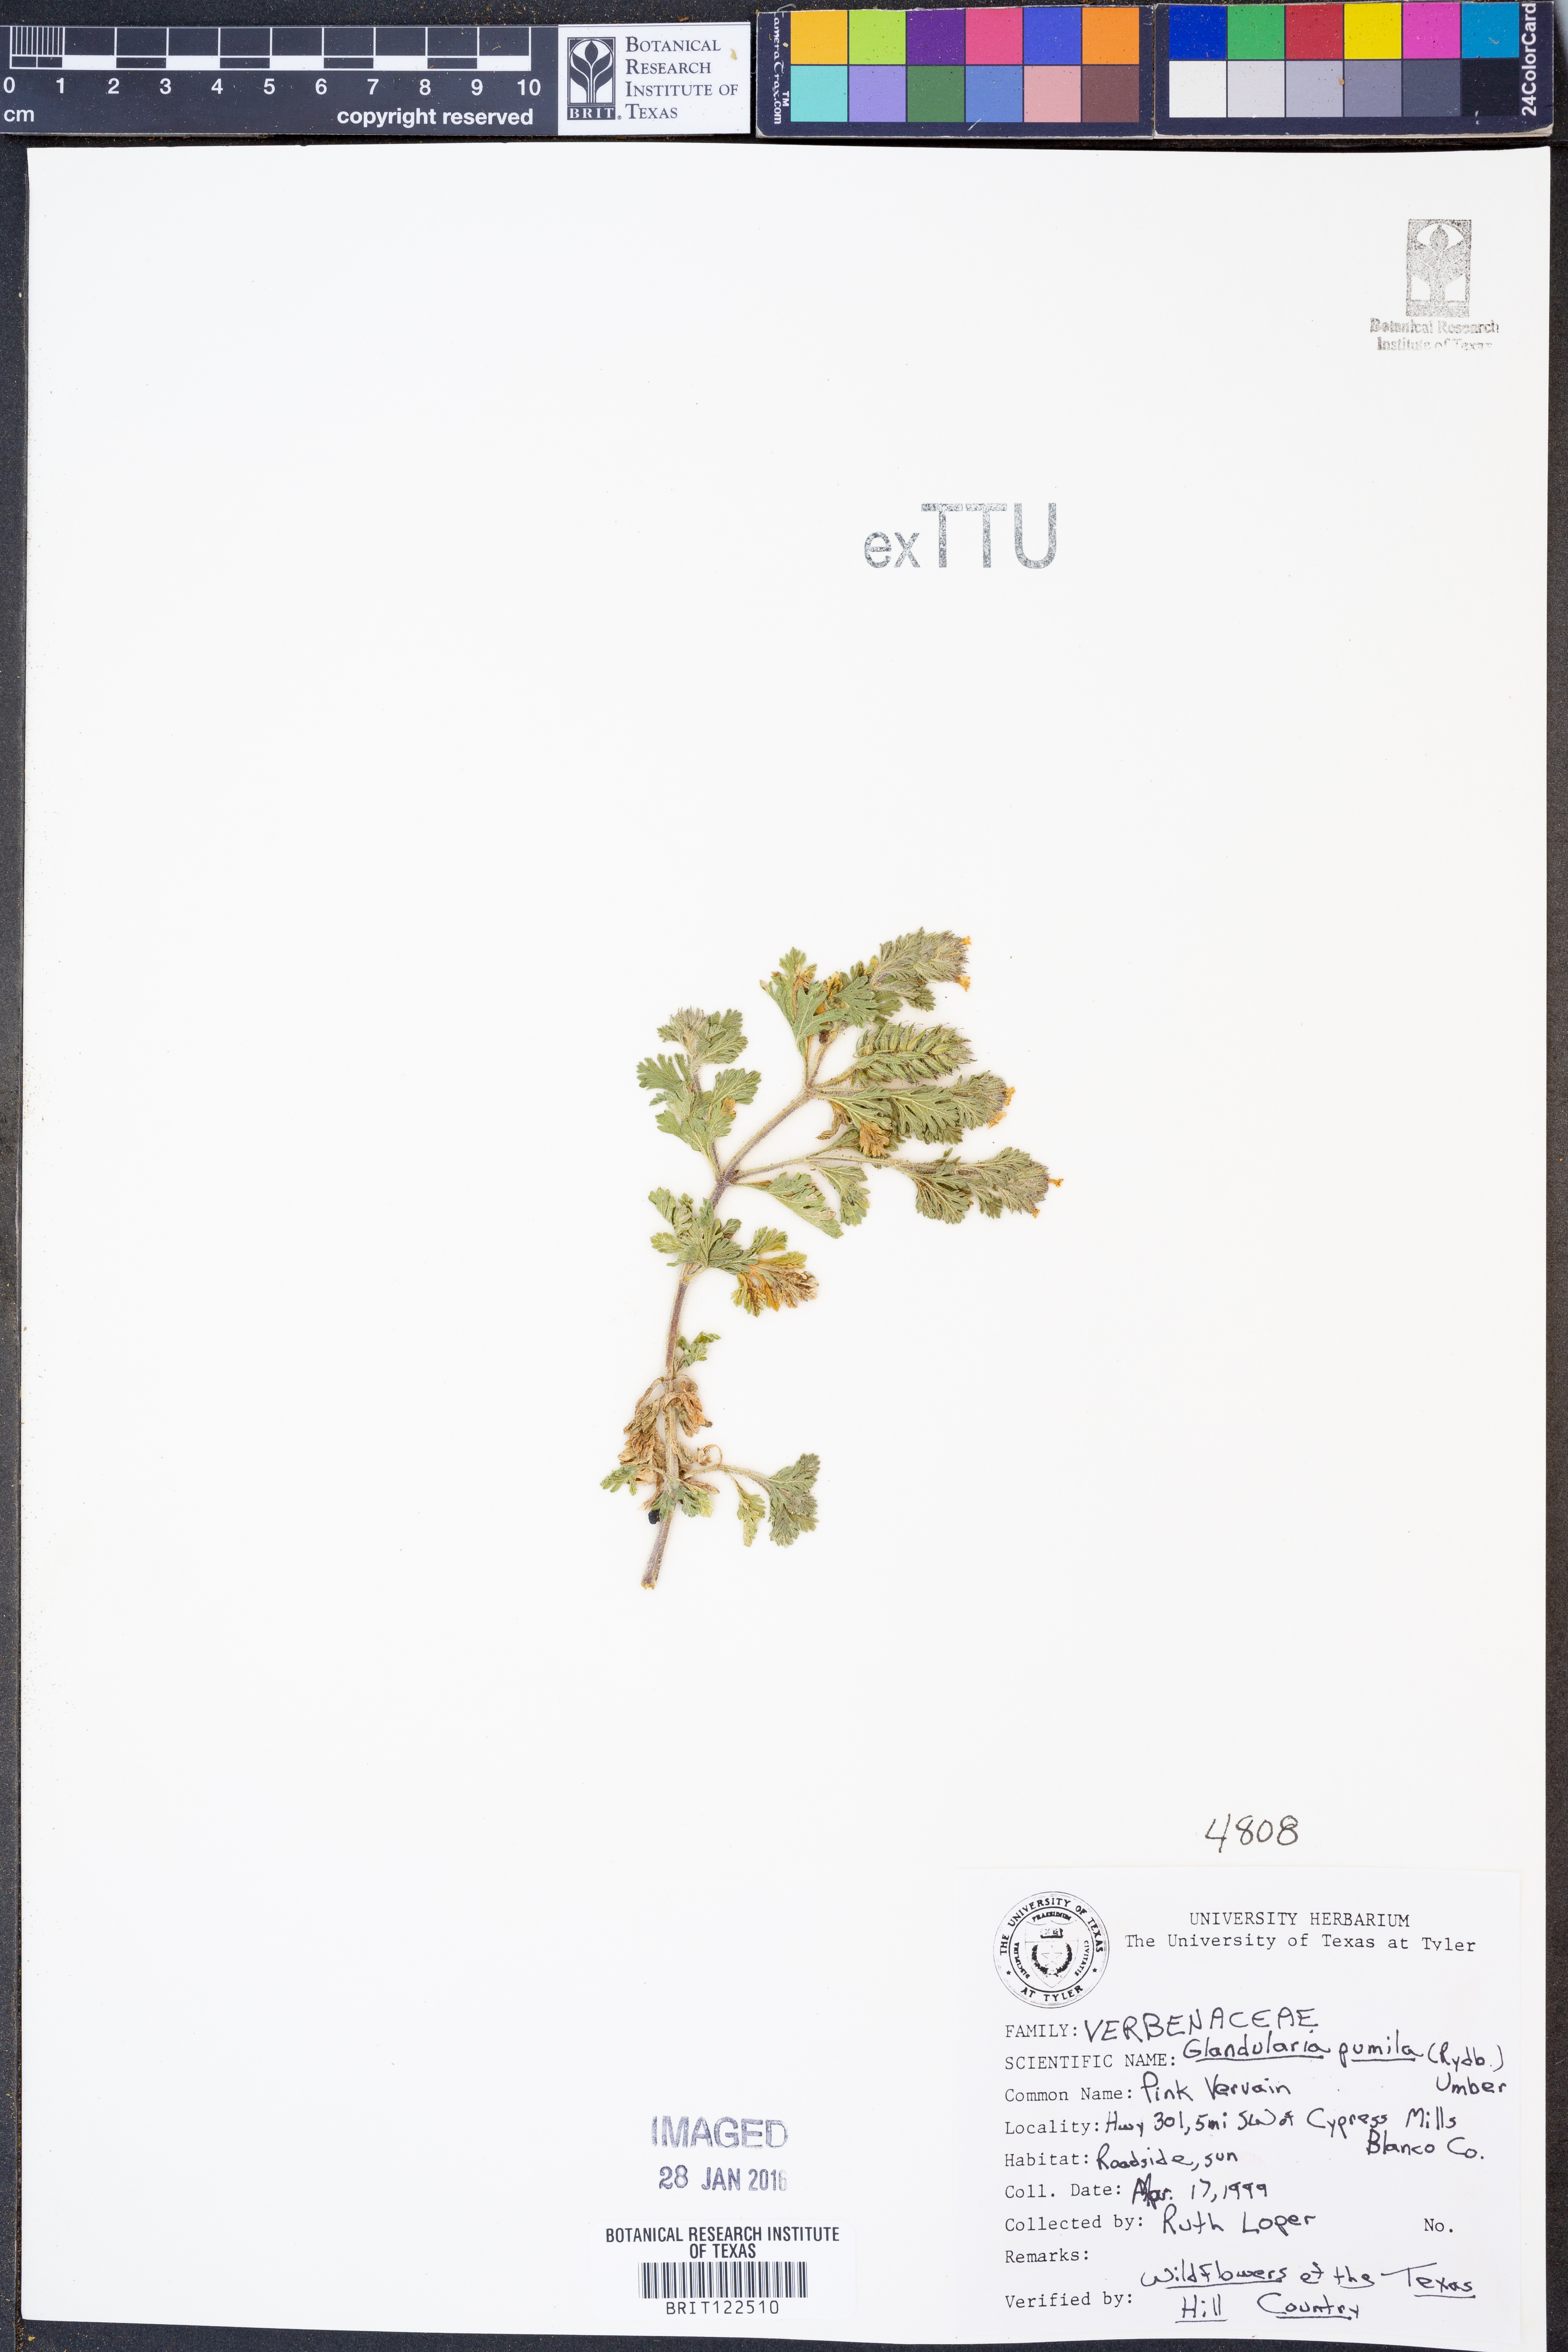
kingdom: Plantae
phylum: Tracheophyta
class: Magnoliopsida
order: Lamiales
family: Verbenaceae
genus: Verbena
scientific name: Verbena pumila
